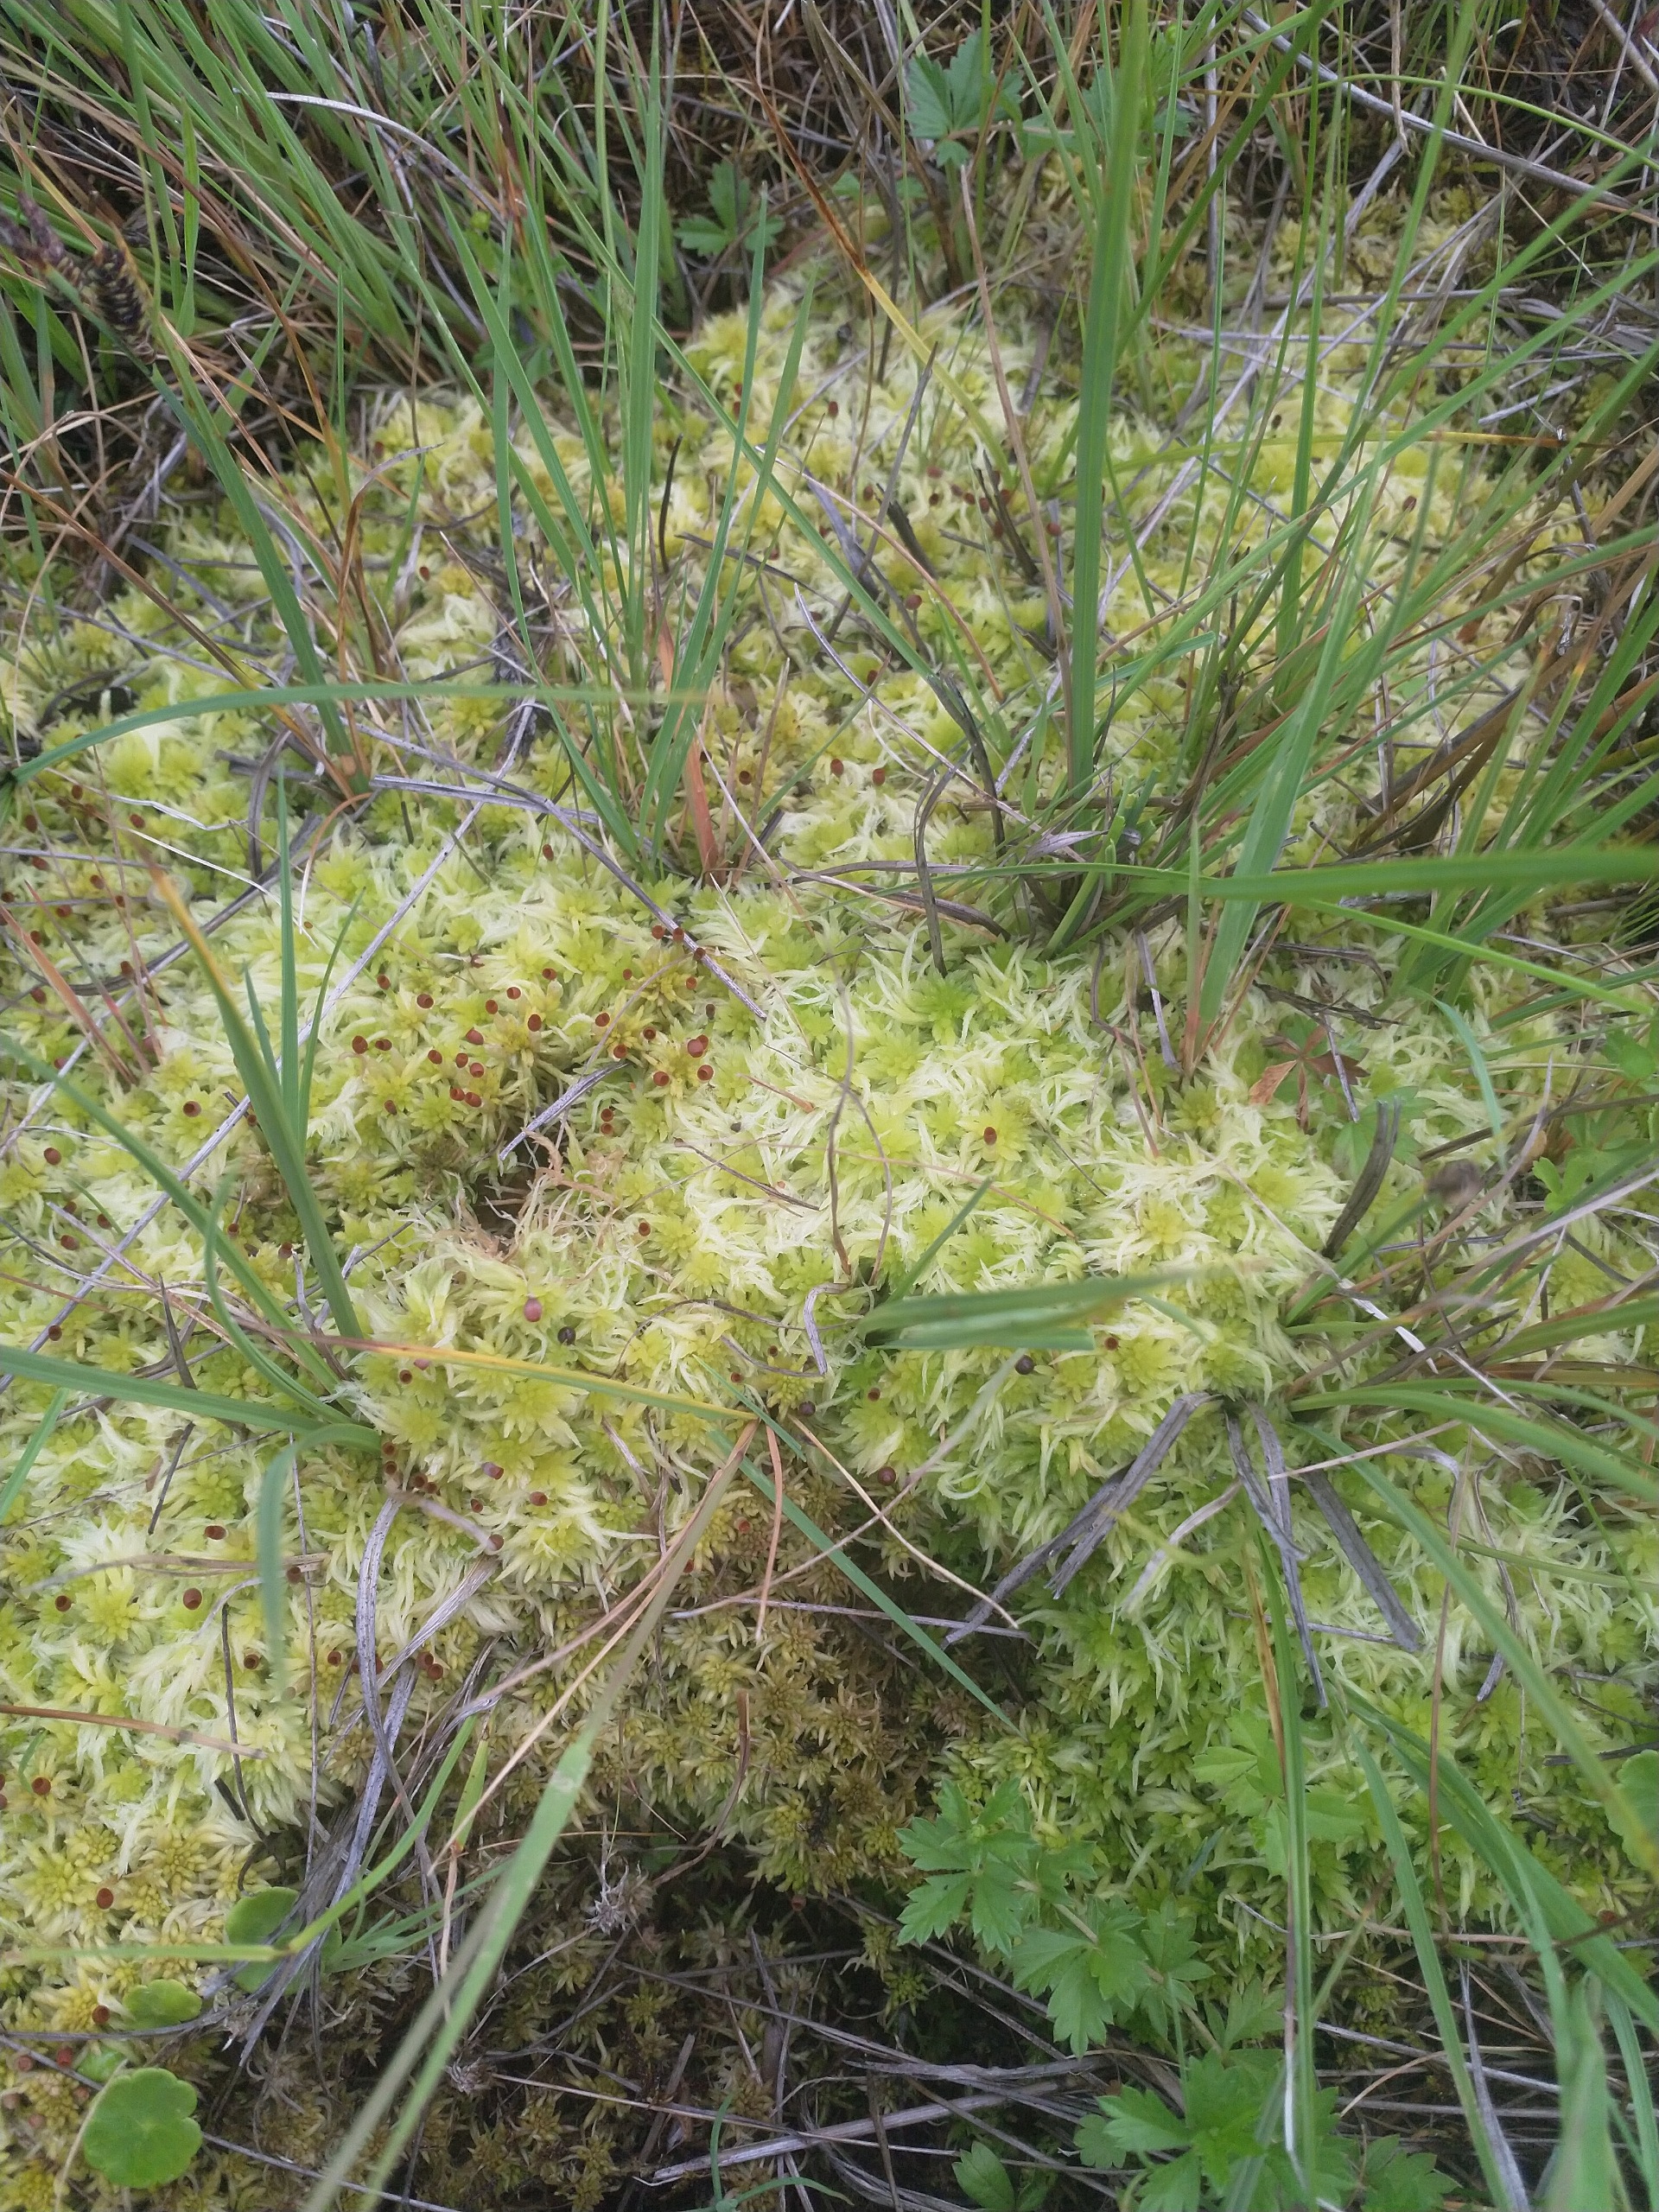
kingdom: Plantae
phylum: Bryophyta
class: Sphagnopsida
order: Sphagnales
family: Sphagnaceae
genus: Sphagnum
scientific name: Sphagnum
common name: Tørvemosslægten
